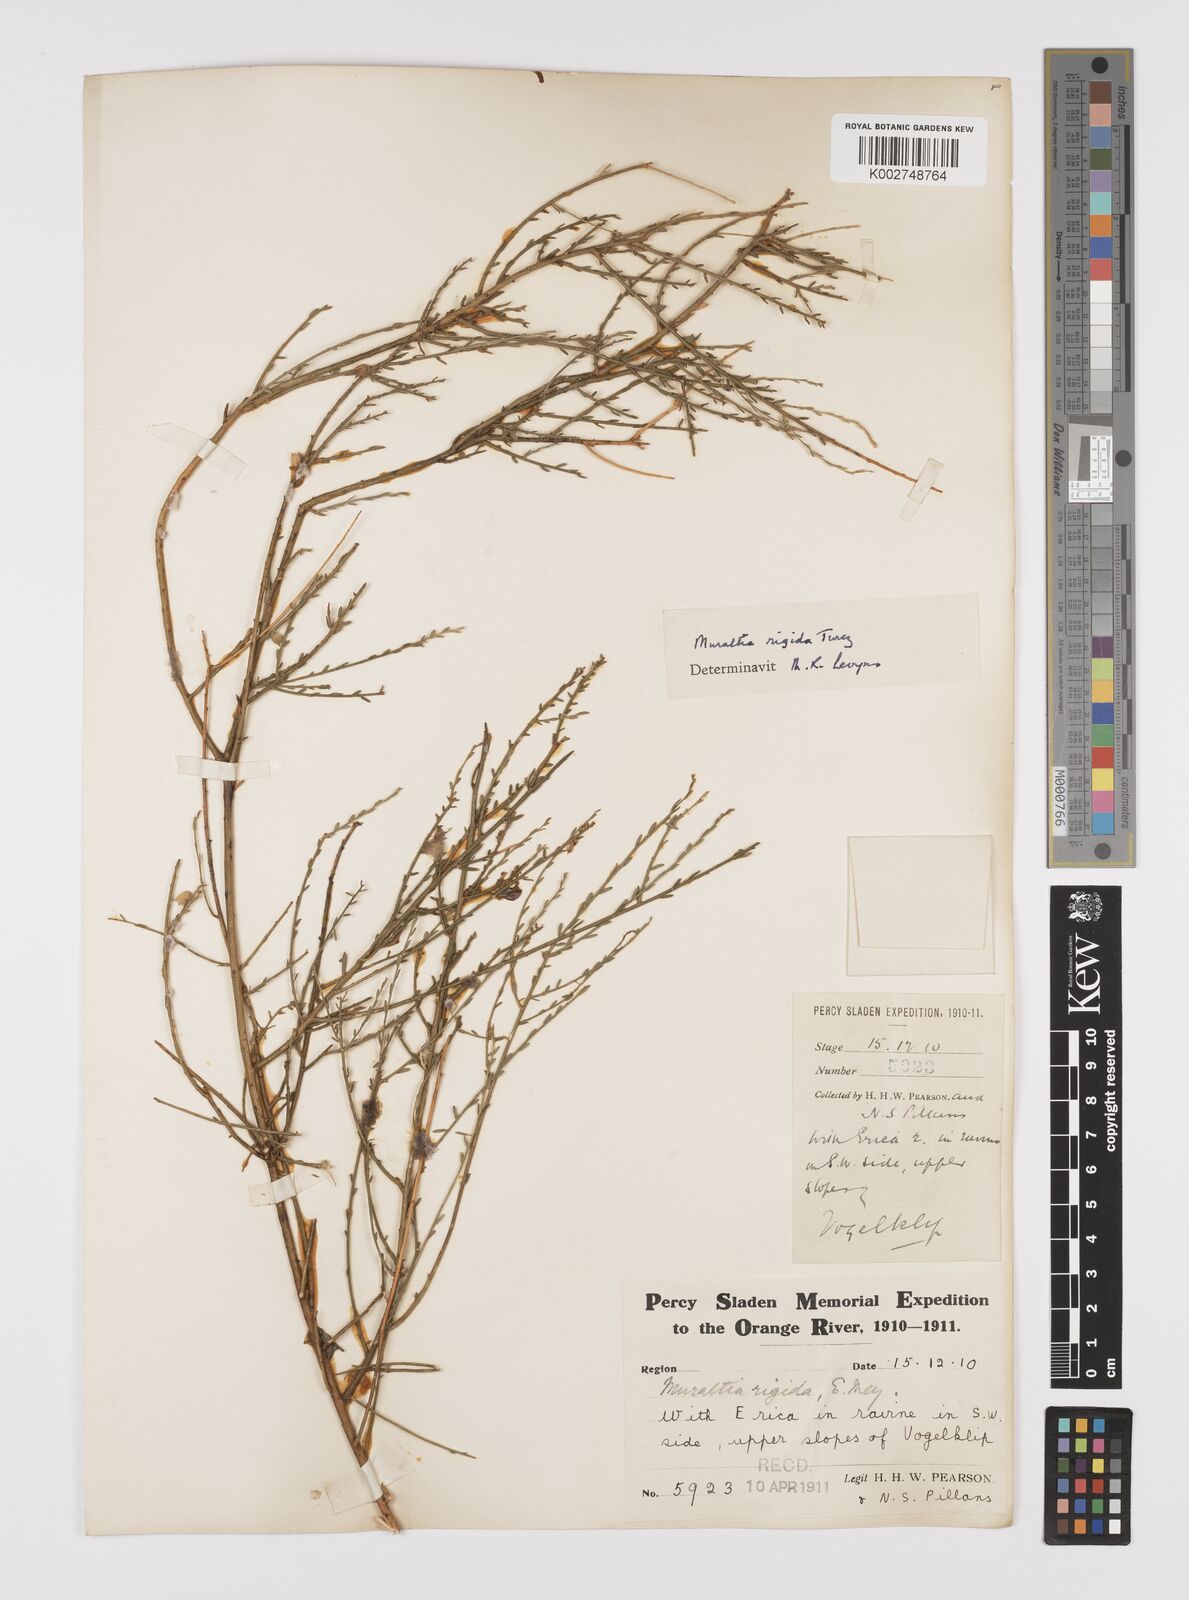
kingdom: Plantae
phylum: Tracheophyta
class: Magnoliopsida
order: Fabales
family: Polygalaceae
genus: Muraltia
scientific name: Muraltia rigida
